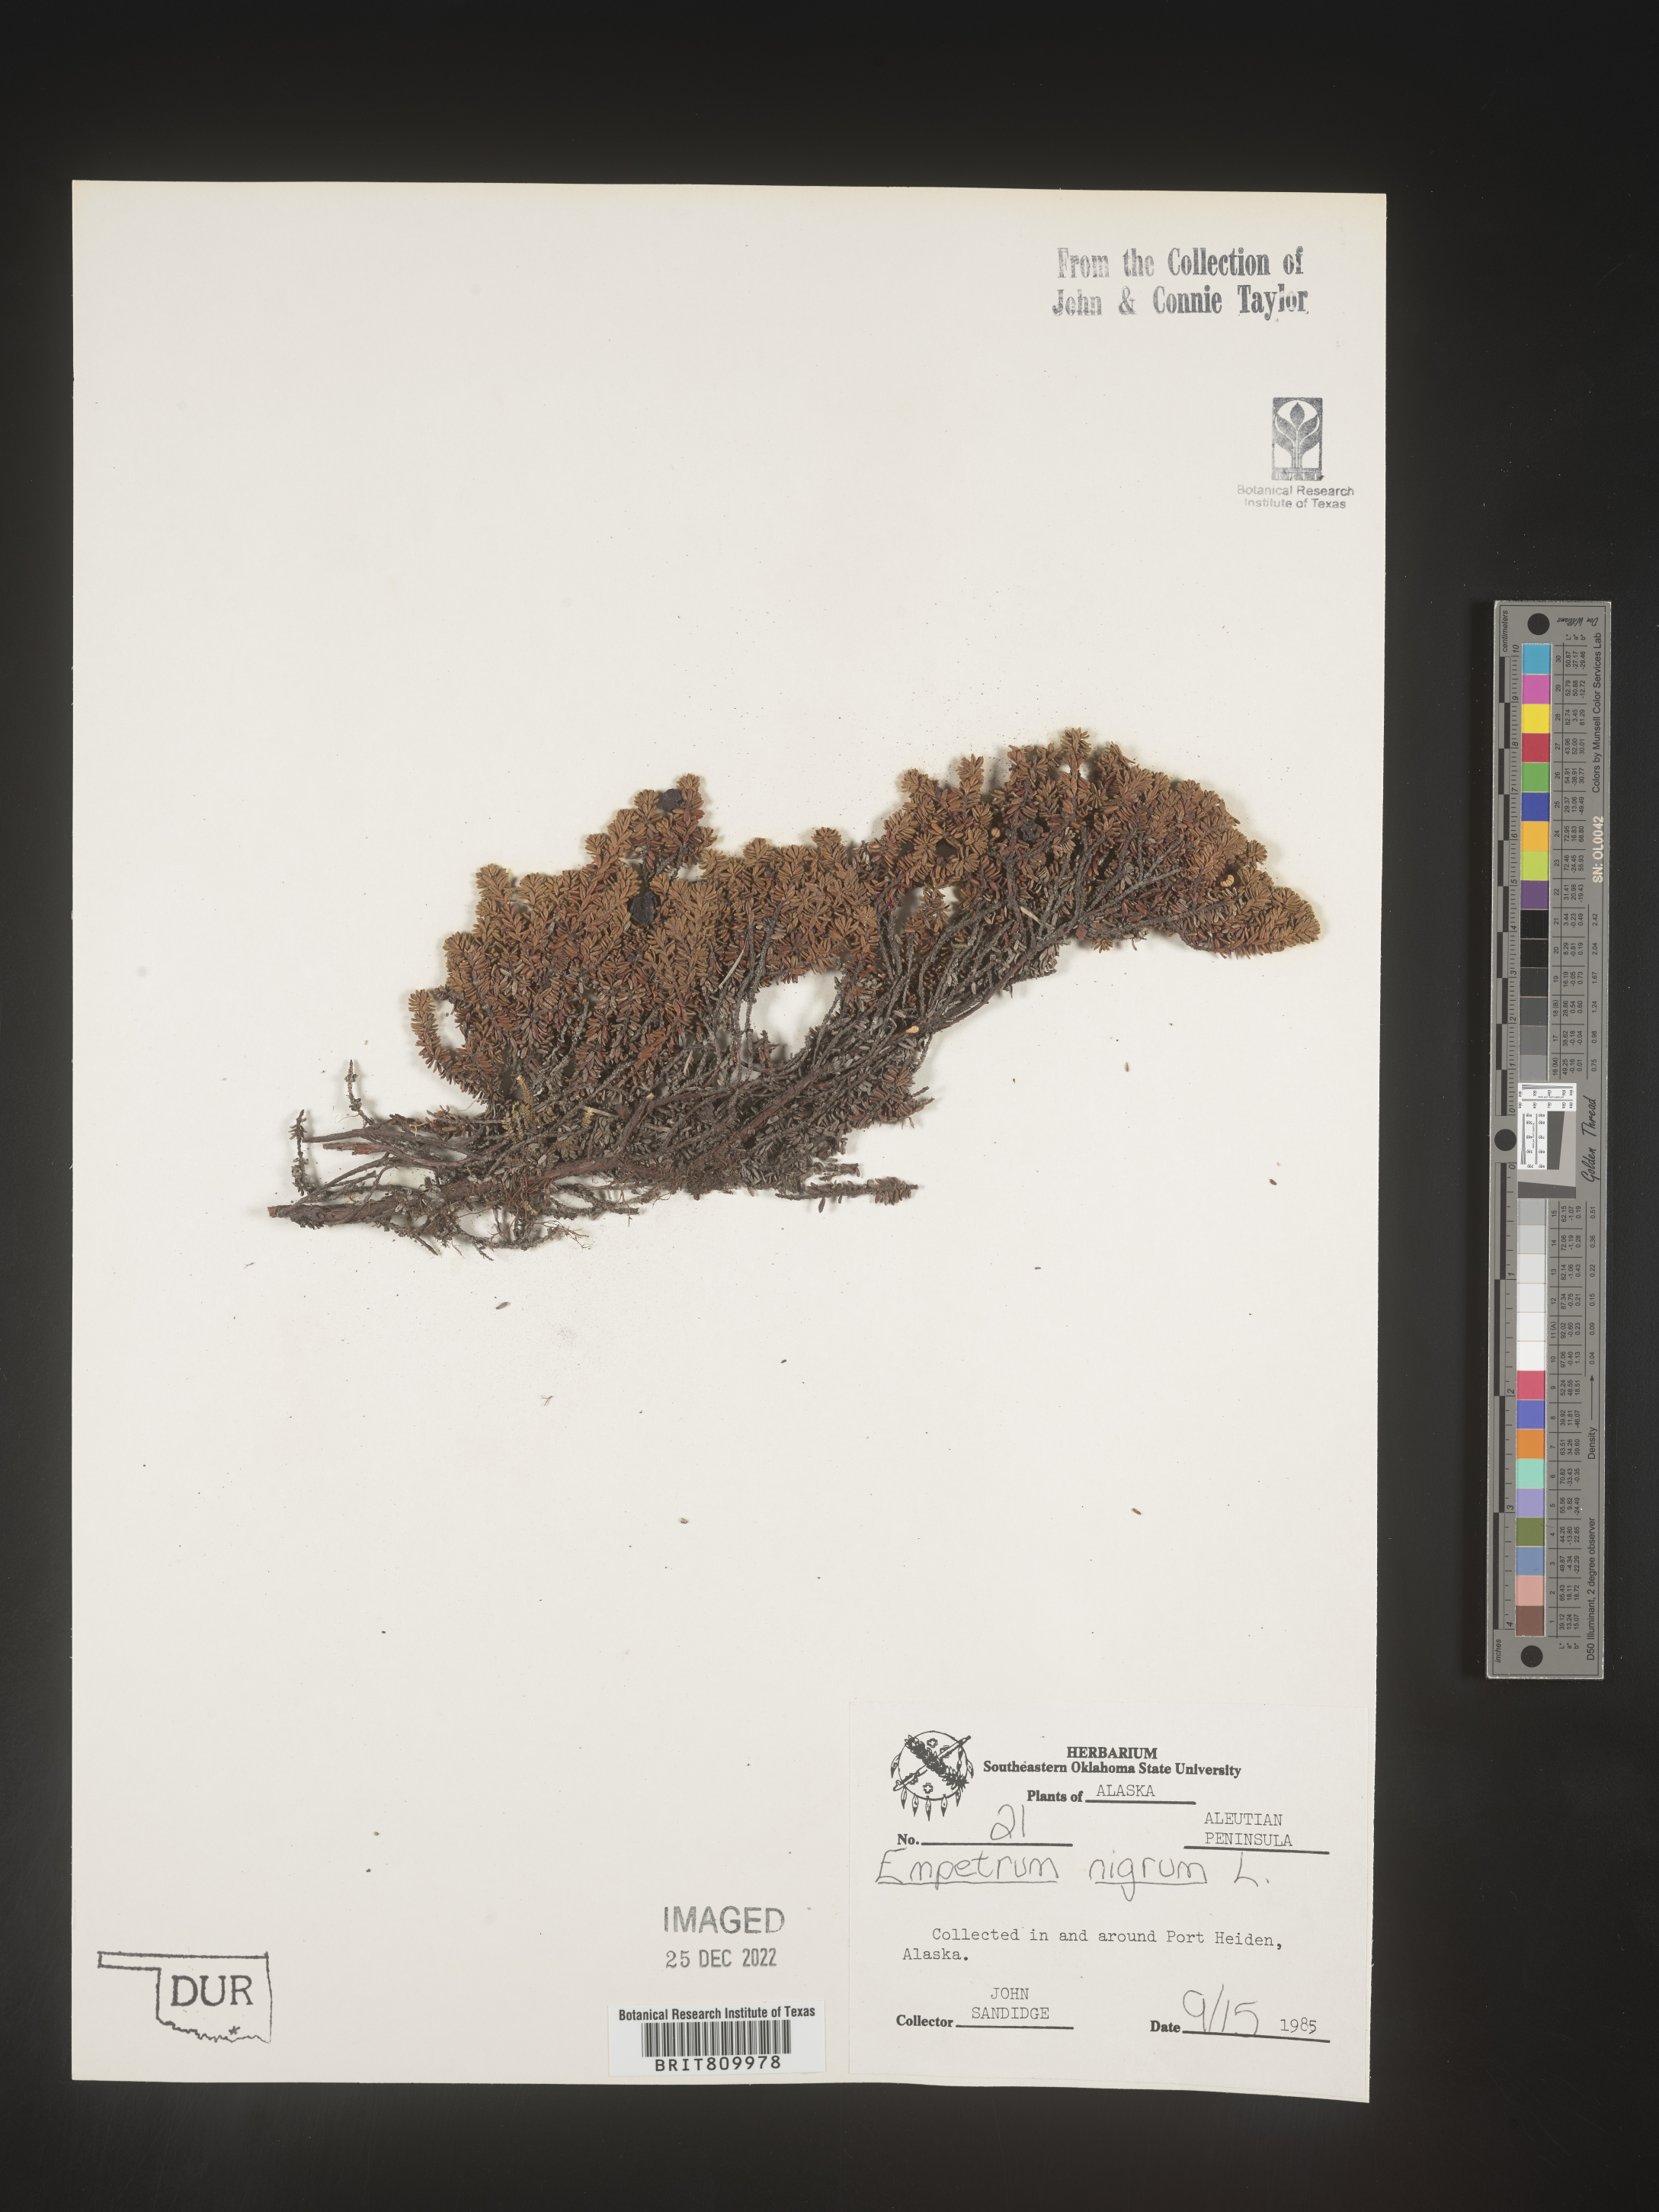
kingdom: Plantae
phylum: Tracheophyta
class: Magnoliopsida
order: Ericales
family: Ericaceae
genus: Empetrum
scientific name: Empetrum
